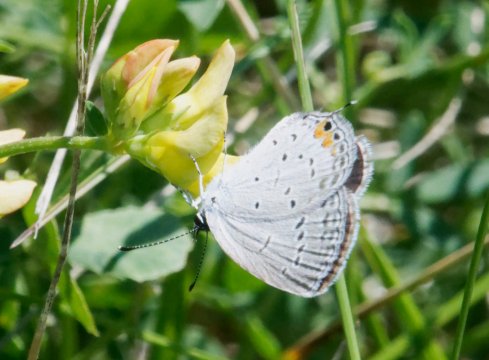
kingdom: Animalia
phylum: Arthropoda
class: Insecta
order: Lepidoptera
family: Lycaenidae
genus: Elkalyce
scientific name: Elkalyce comyntas
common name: Eastern Tailed-Blue
